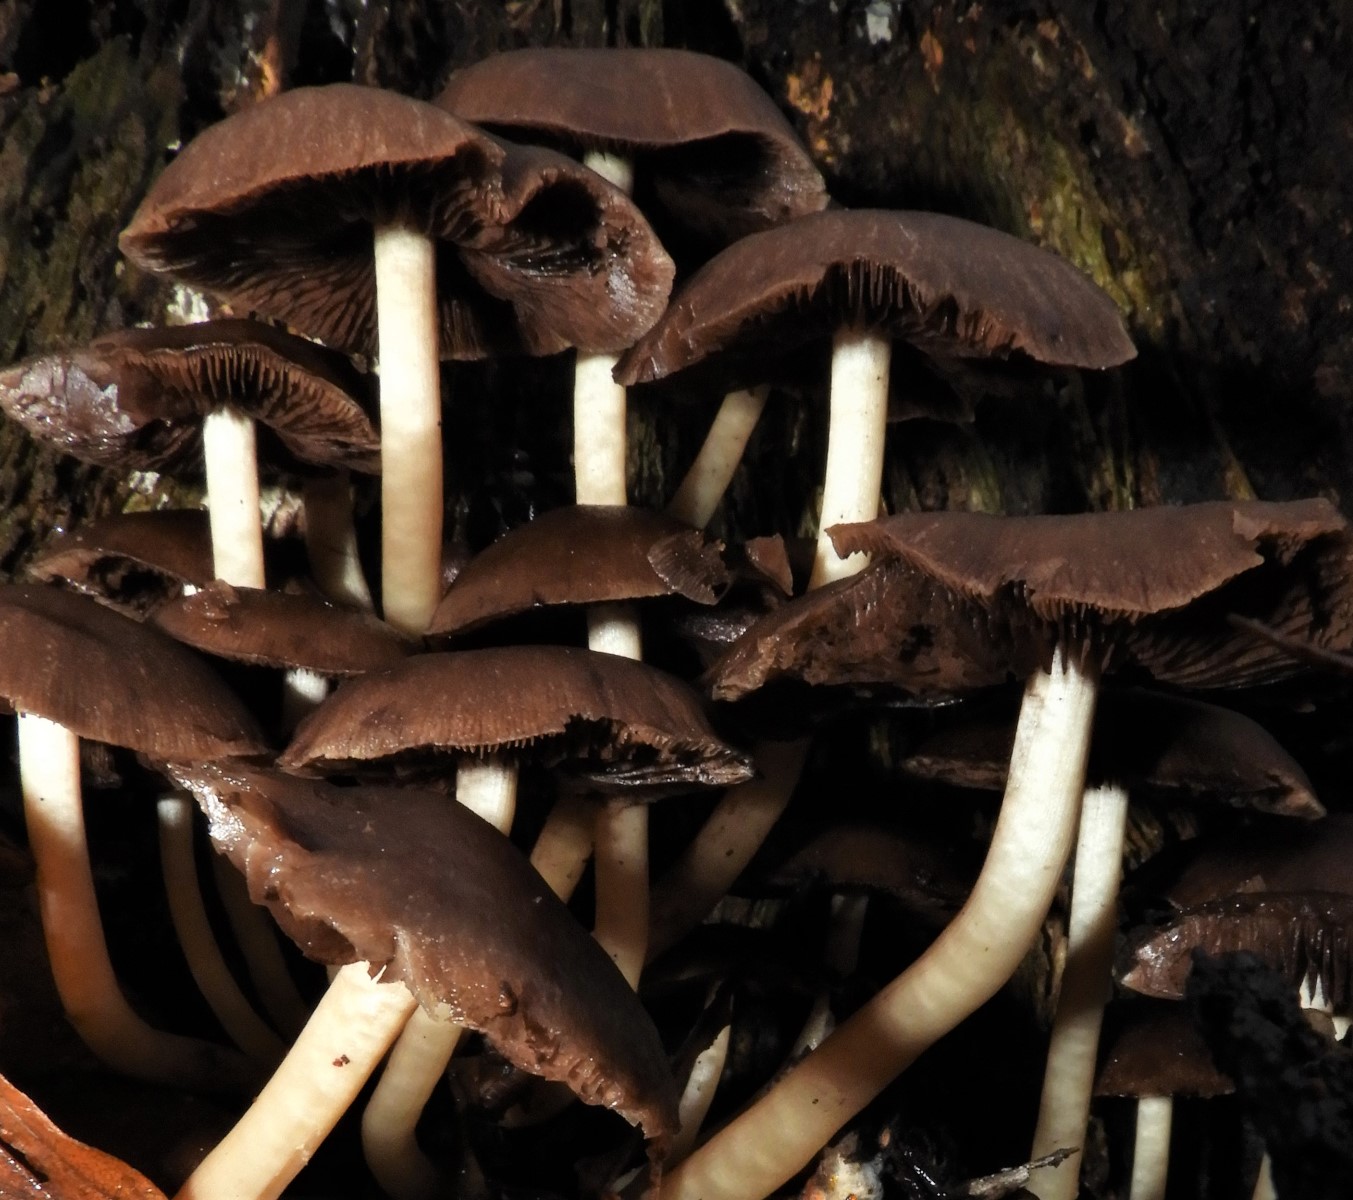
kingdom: Fungi
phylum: Basidiomycota
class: Agaricomycetes
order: Agaricales
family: Psathyrellaceae
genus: Psathyrella
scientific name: Psathyrella piluliformis
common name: lysstokket mørkhat
